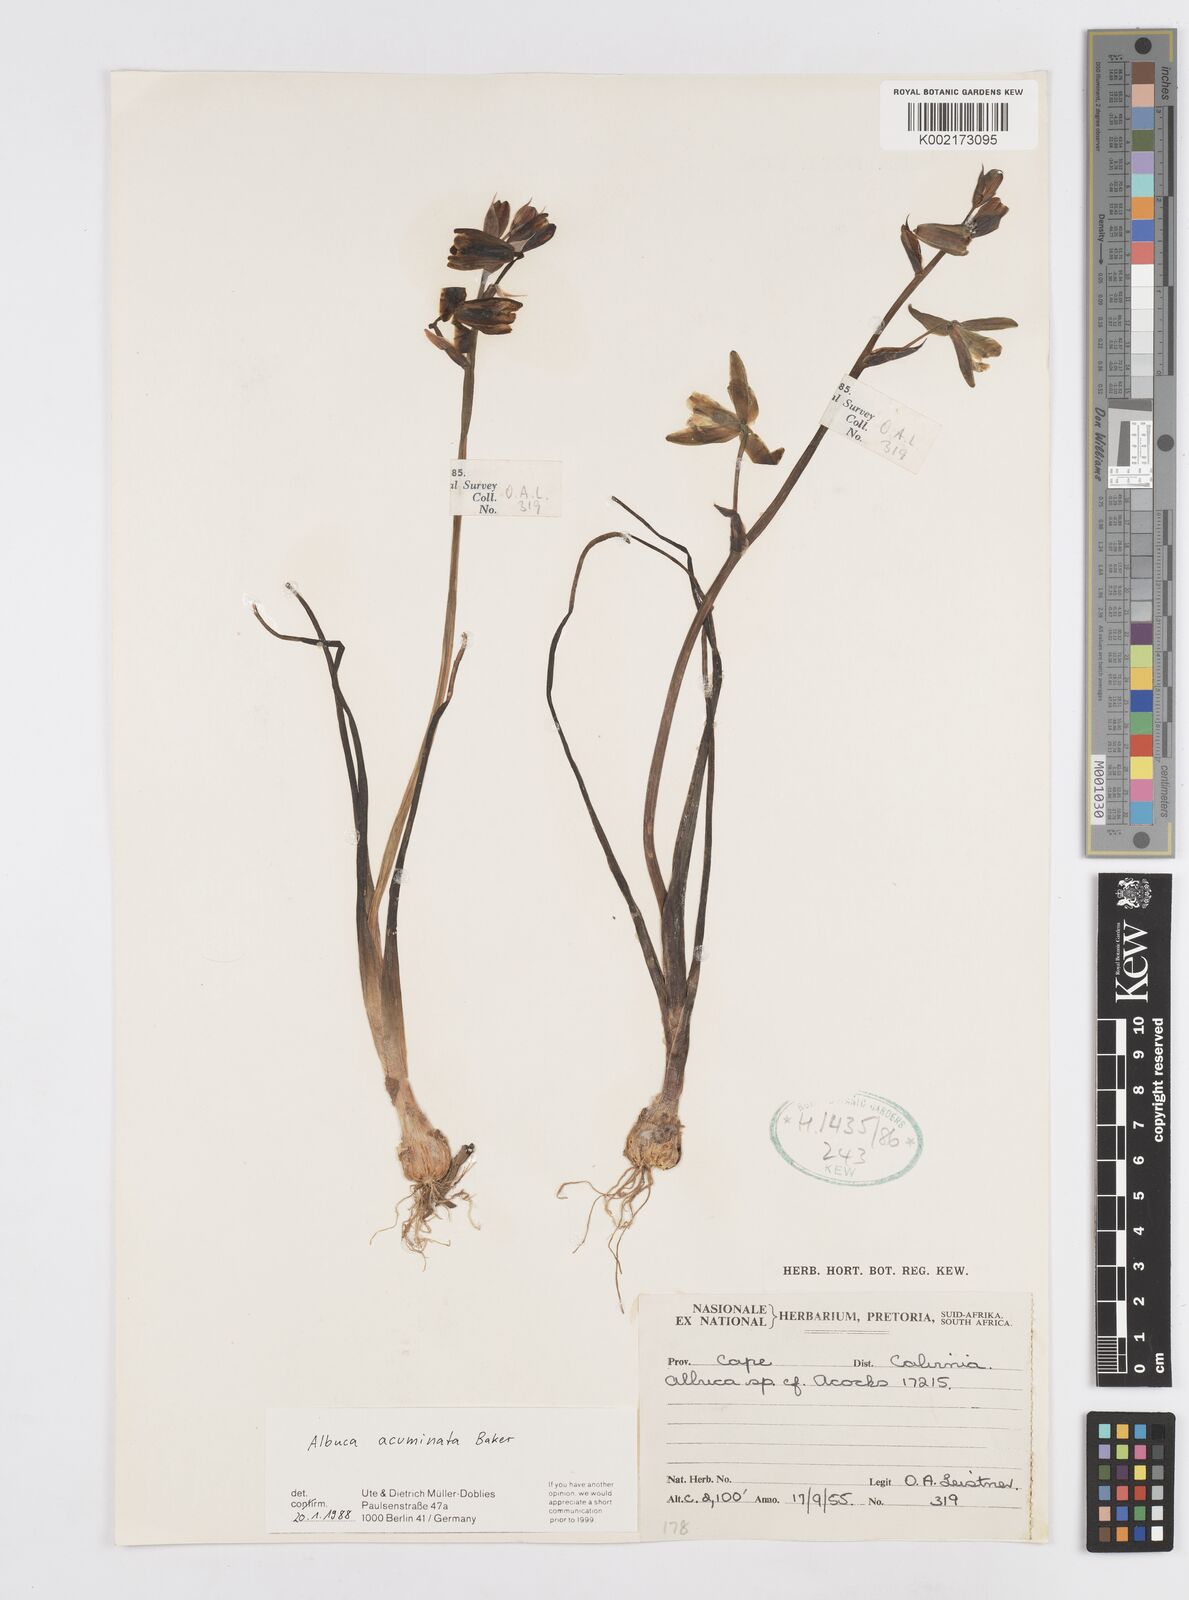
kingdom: Plantae
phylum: Tracheophyta
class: Liliopsida
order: Asparagales
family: Asparagaceae
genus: Albuca
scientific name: Albuca acuminata
